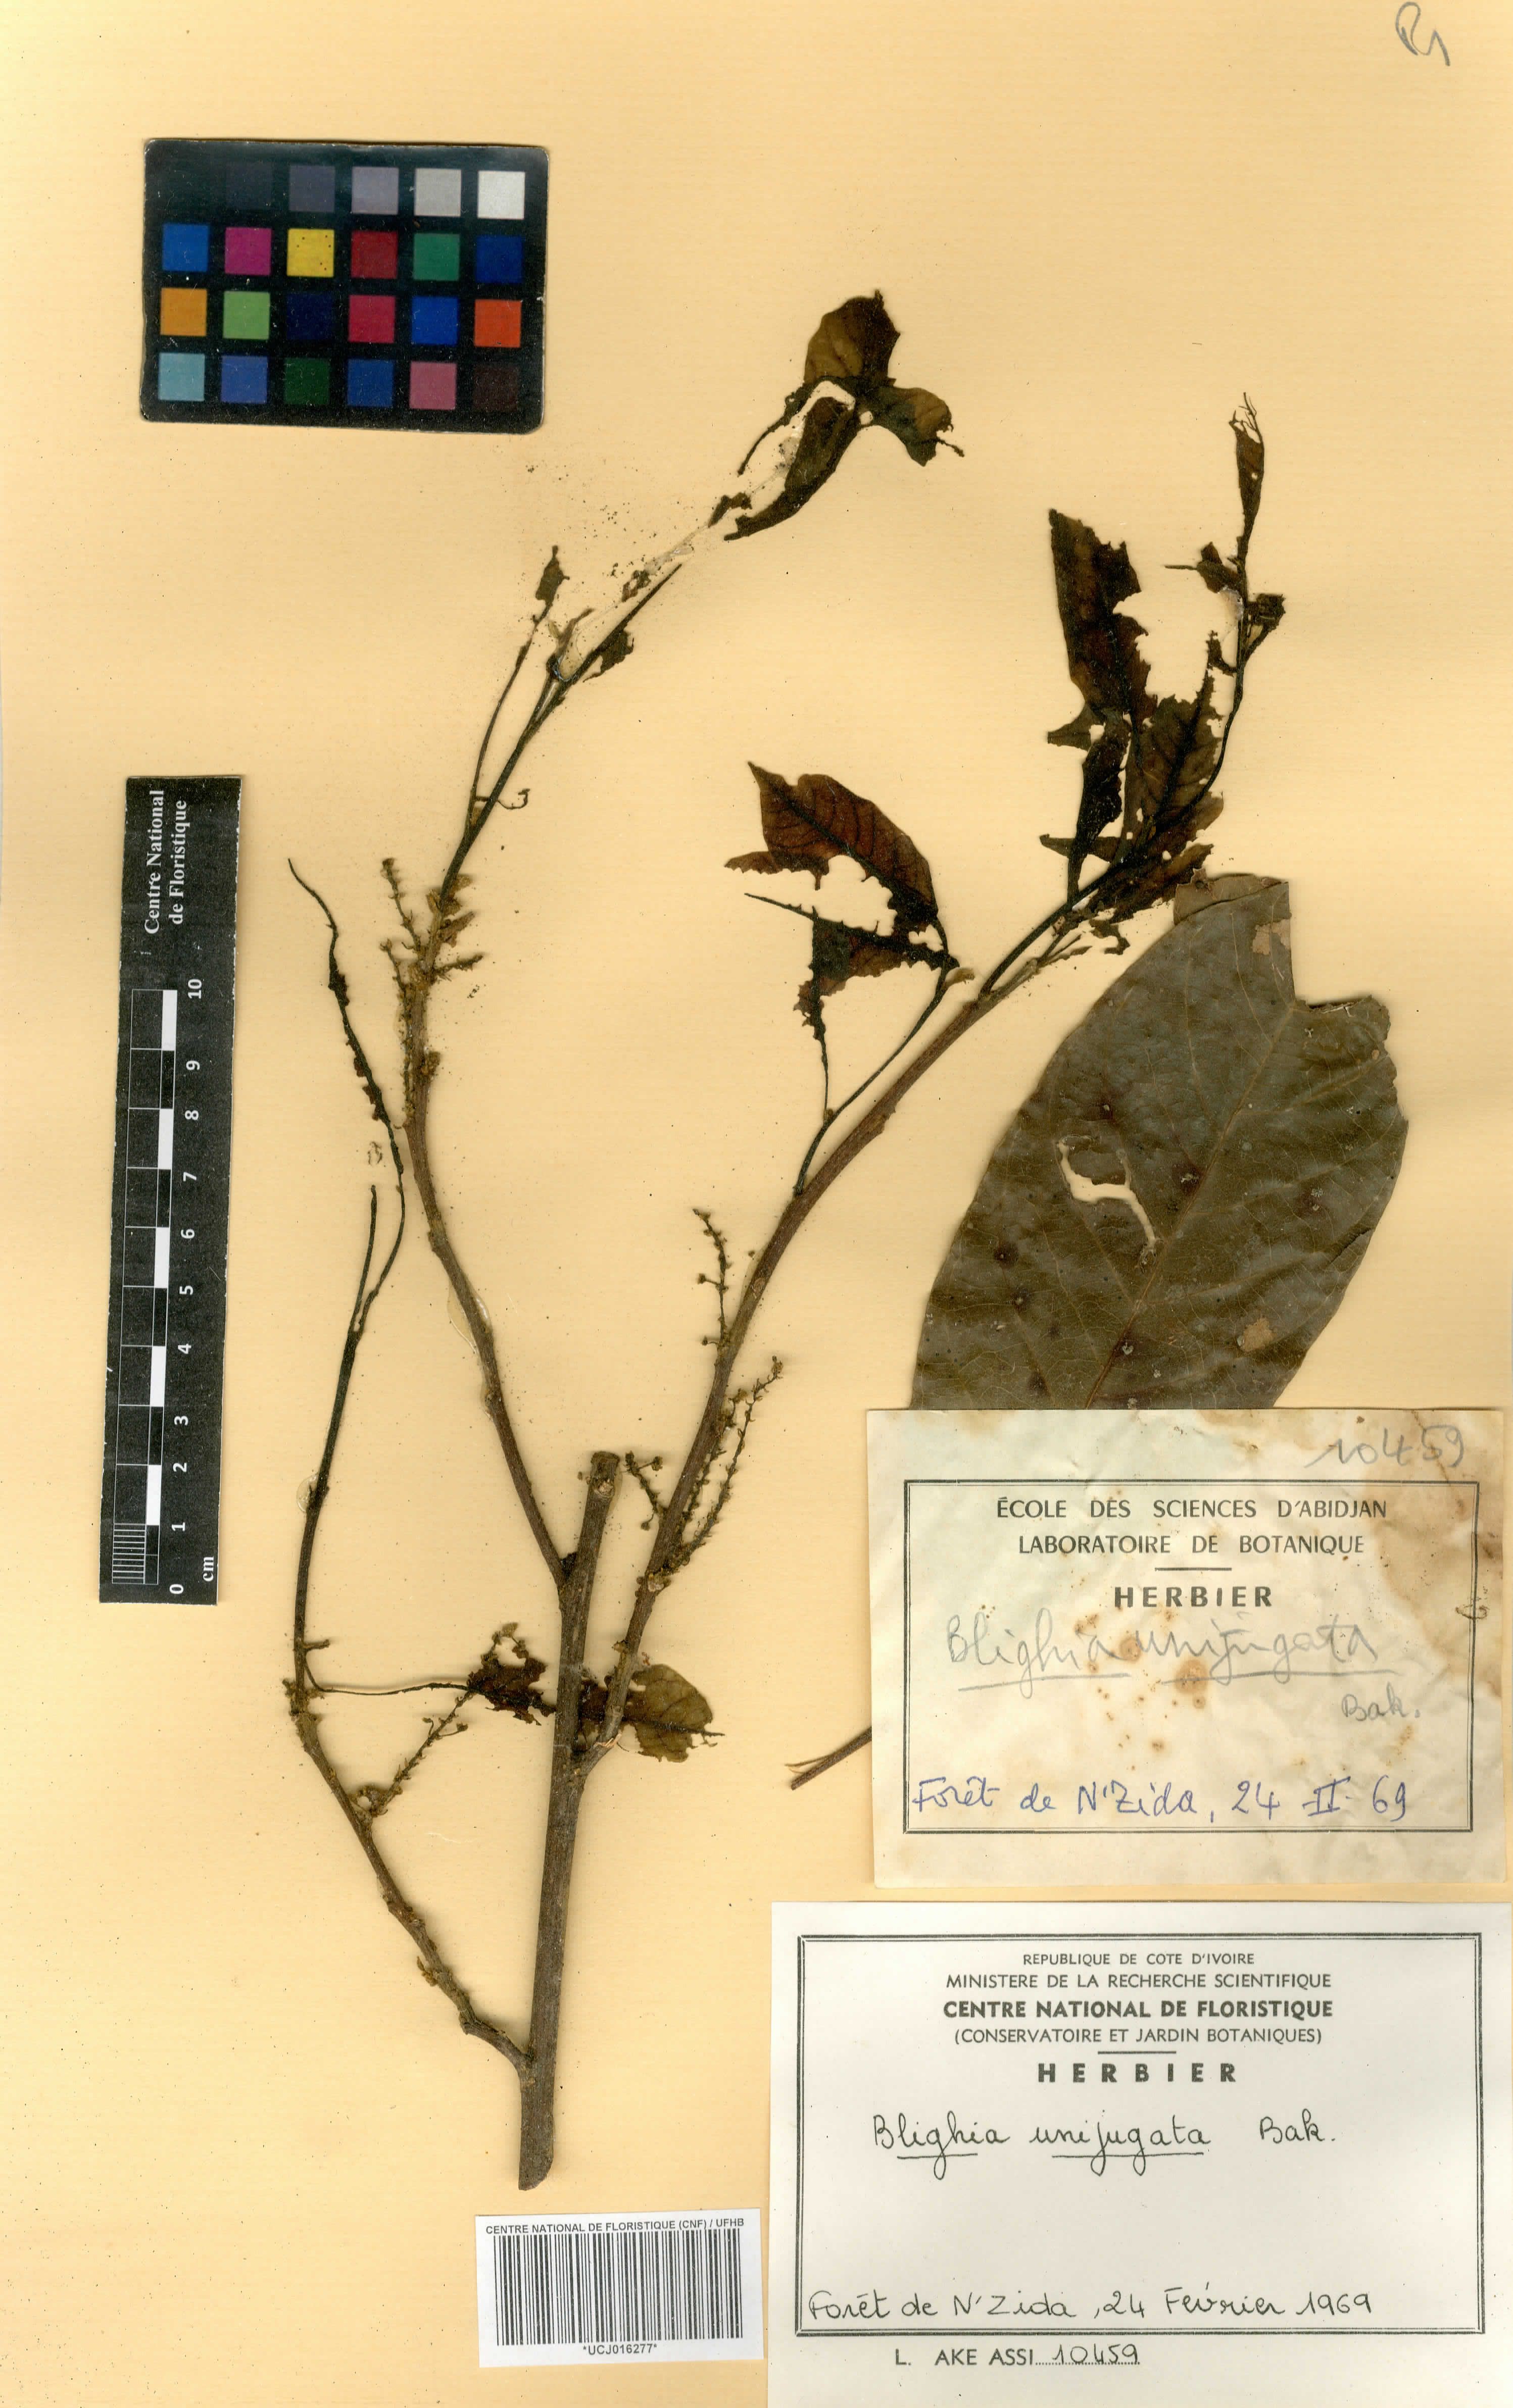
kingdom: Plantae
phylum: Tracheophyta
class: Magnoliopsida
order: Sapindales
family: Sapindaceae
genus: Blighia
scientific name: Blighia unijugata
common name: Triangle tops
